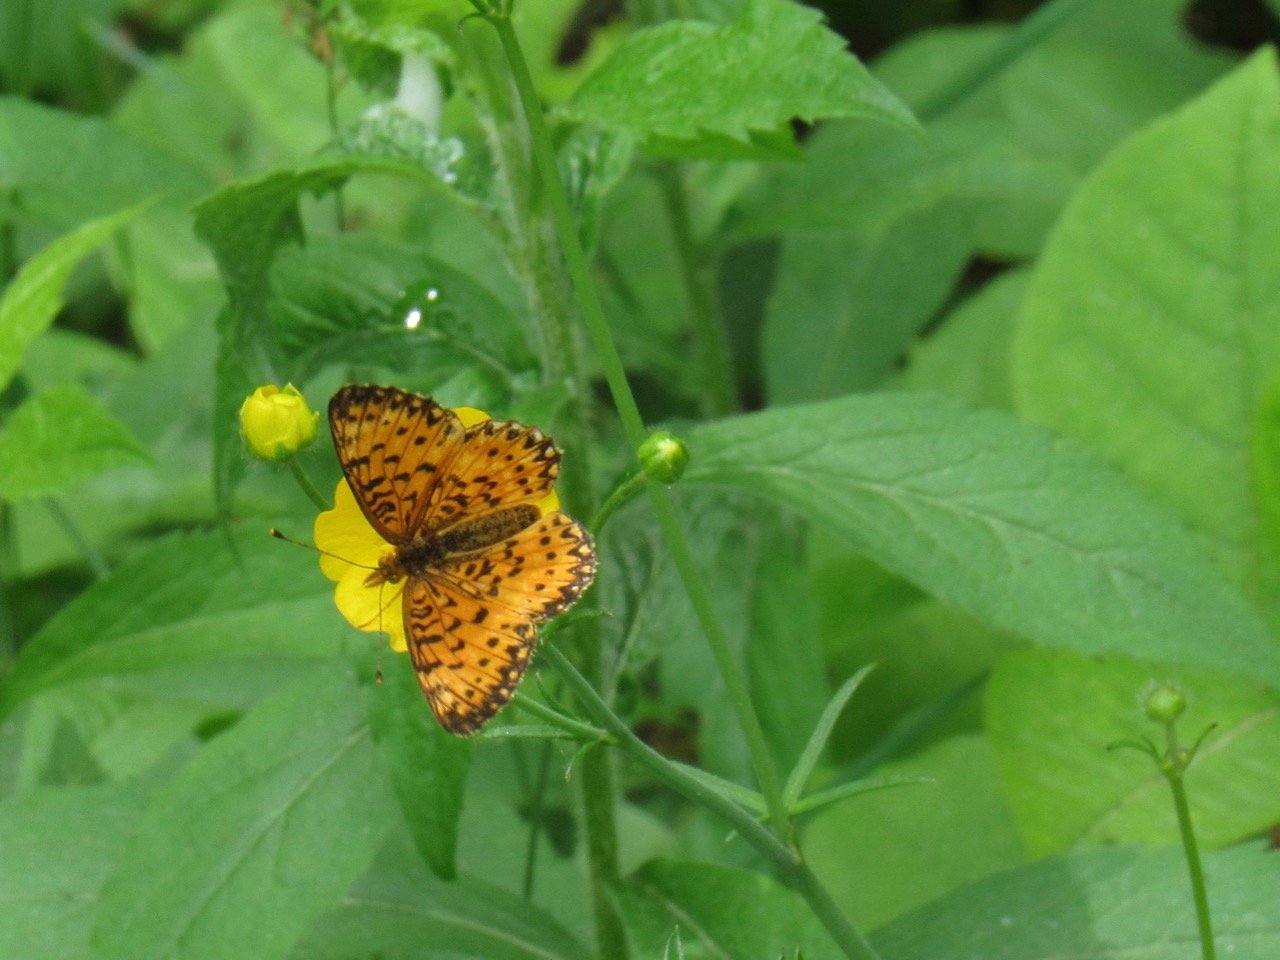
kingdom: Animalia
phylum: Arthropoda
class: Insecta
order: Lepidoptera
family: Nymphalidae
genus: Boloria
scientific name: Boloria selene
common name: Silver-bordered Fritillary
